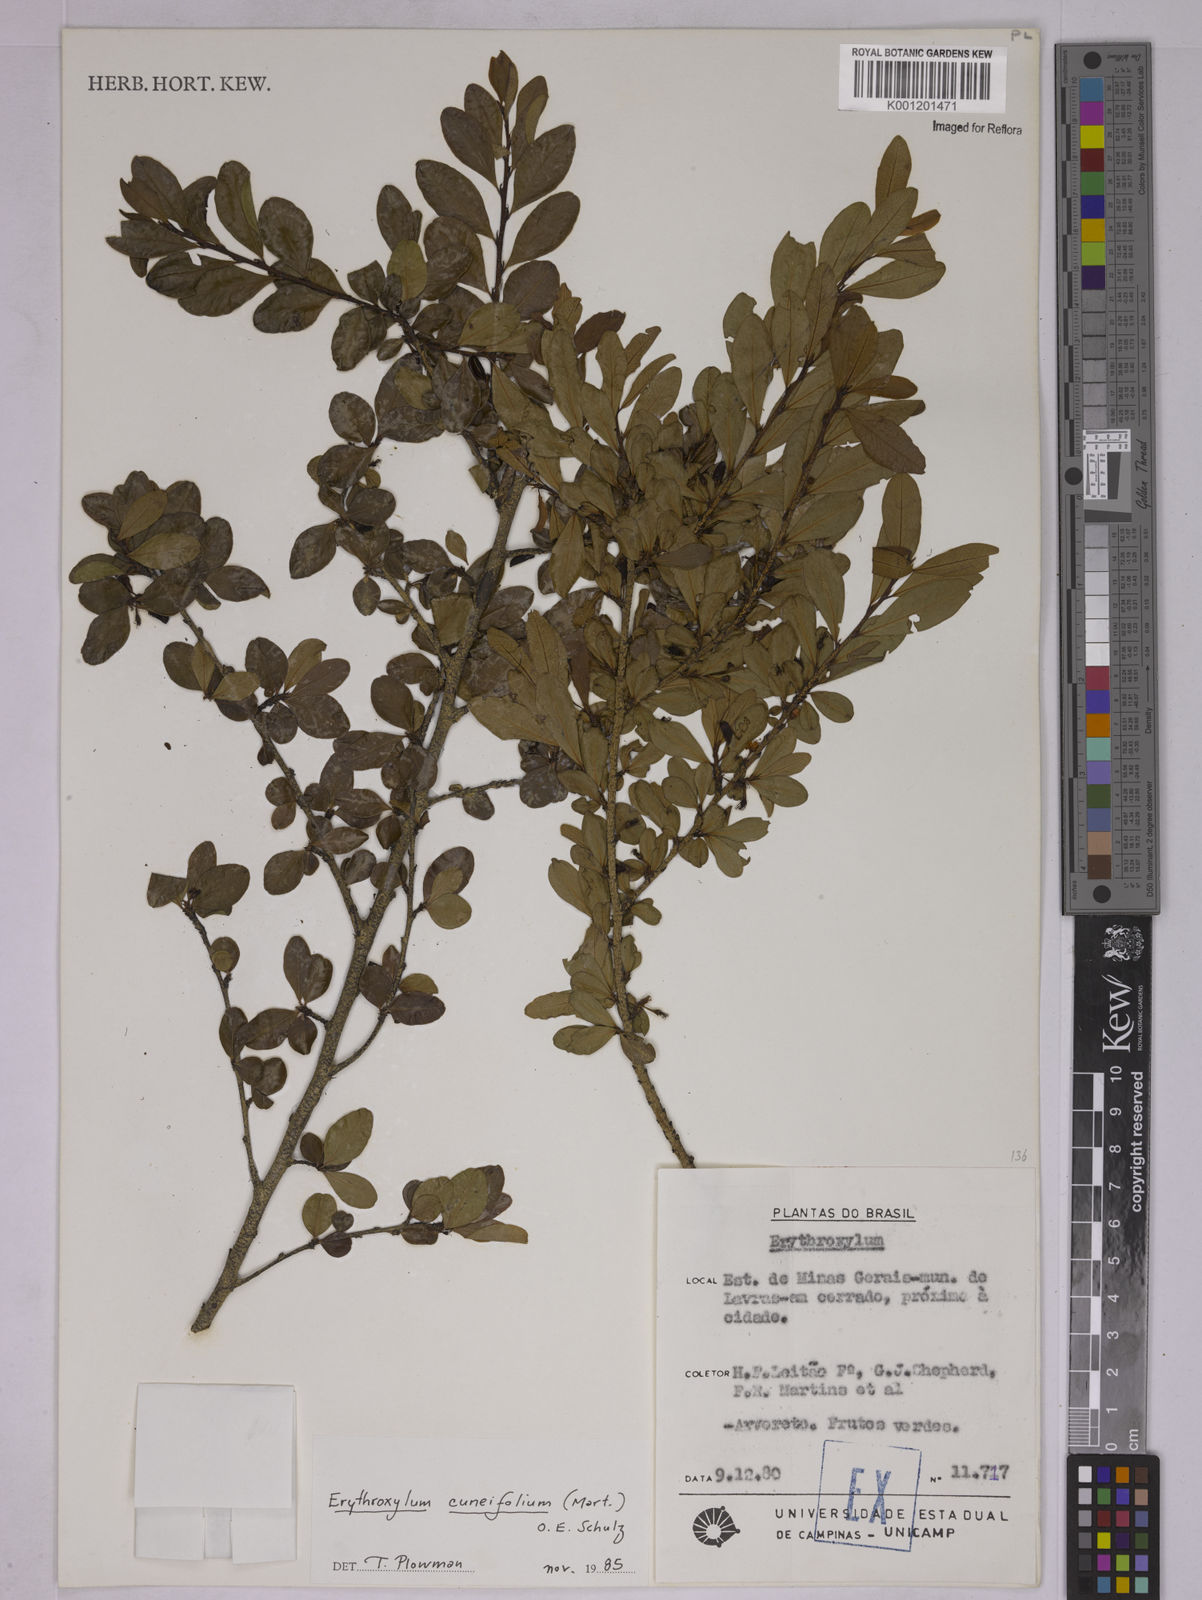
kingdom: Plantae
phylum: Tracheophyta
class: Magnoliopsida
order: Malpighiales
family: Erythroxylaceae
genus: Erythroxylum
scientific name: Erythroxylum cuneifolium
